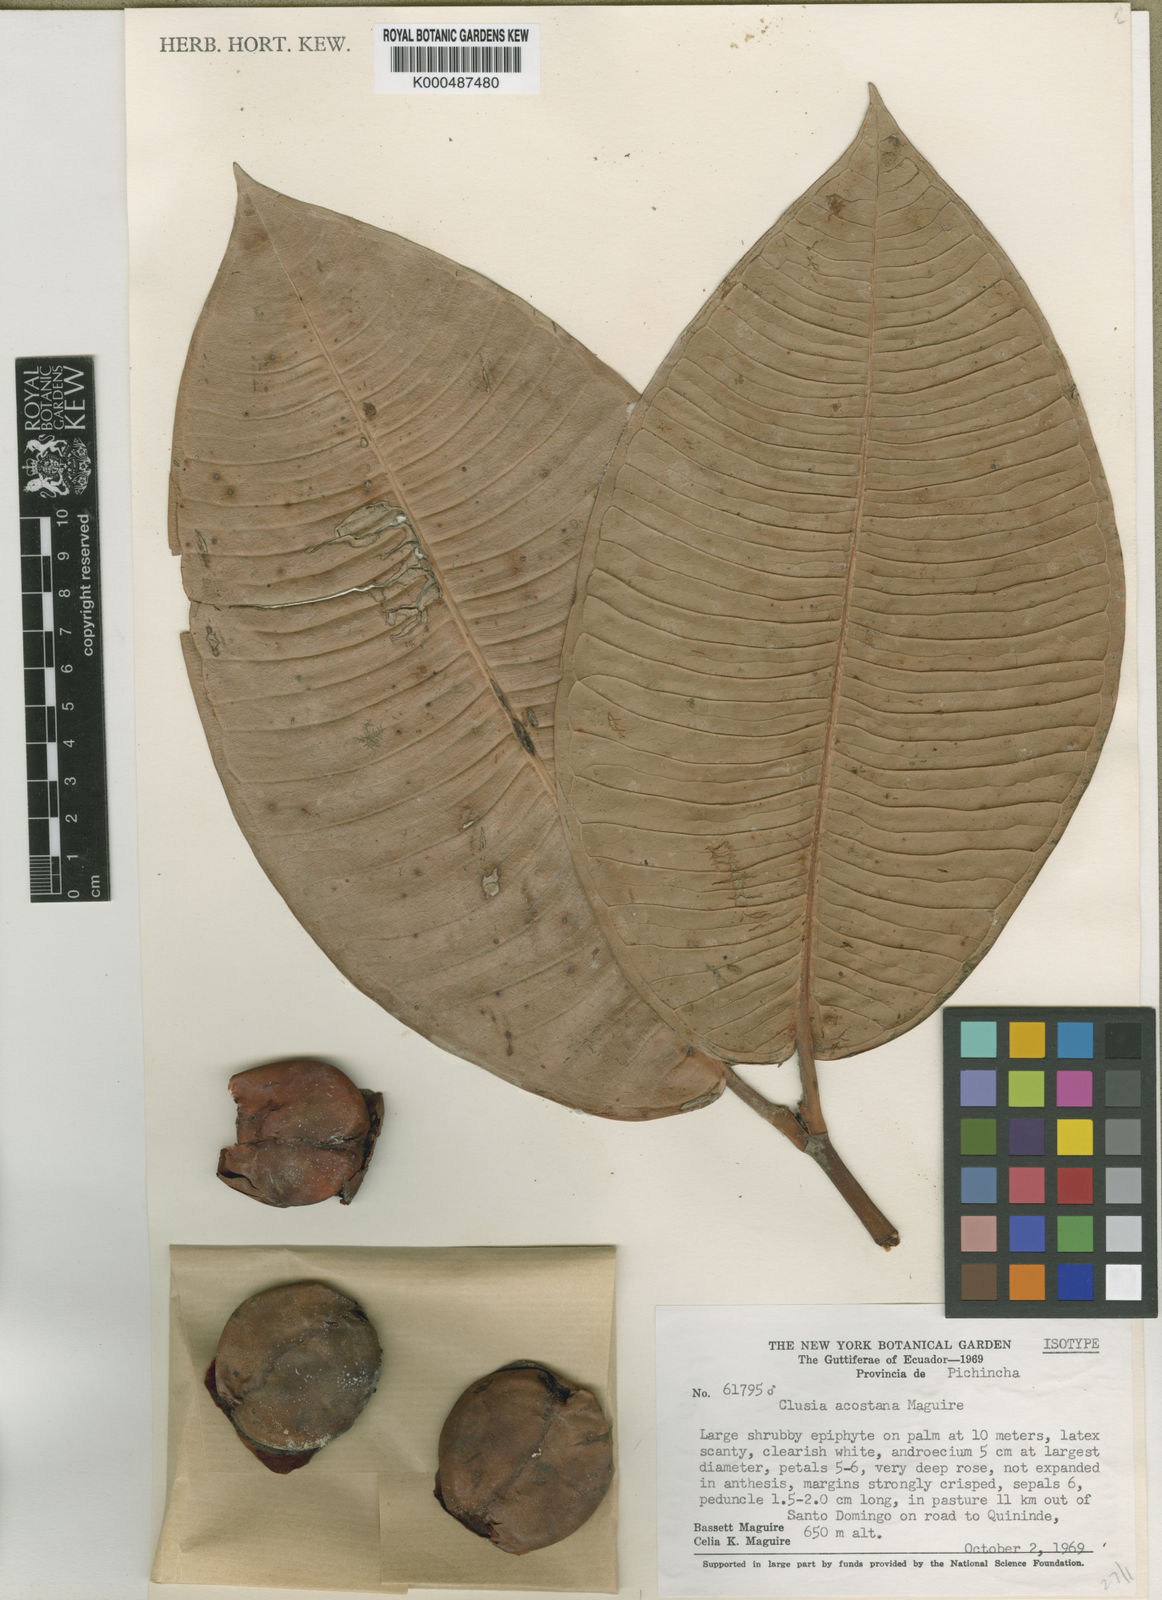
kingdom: Plantae
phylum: Tracheophyta
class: Magnoliopsida
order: Malpighiales
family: Clusiaceae
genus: Clusia
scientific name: Clusia venusta
